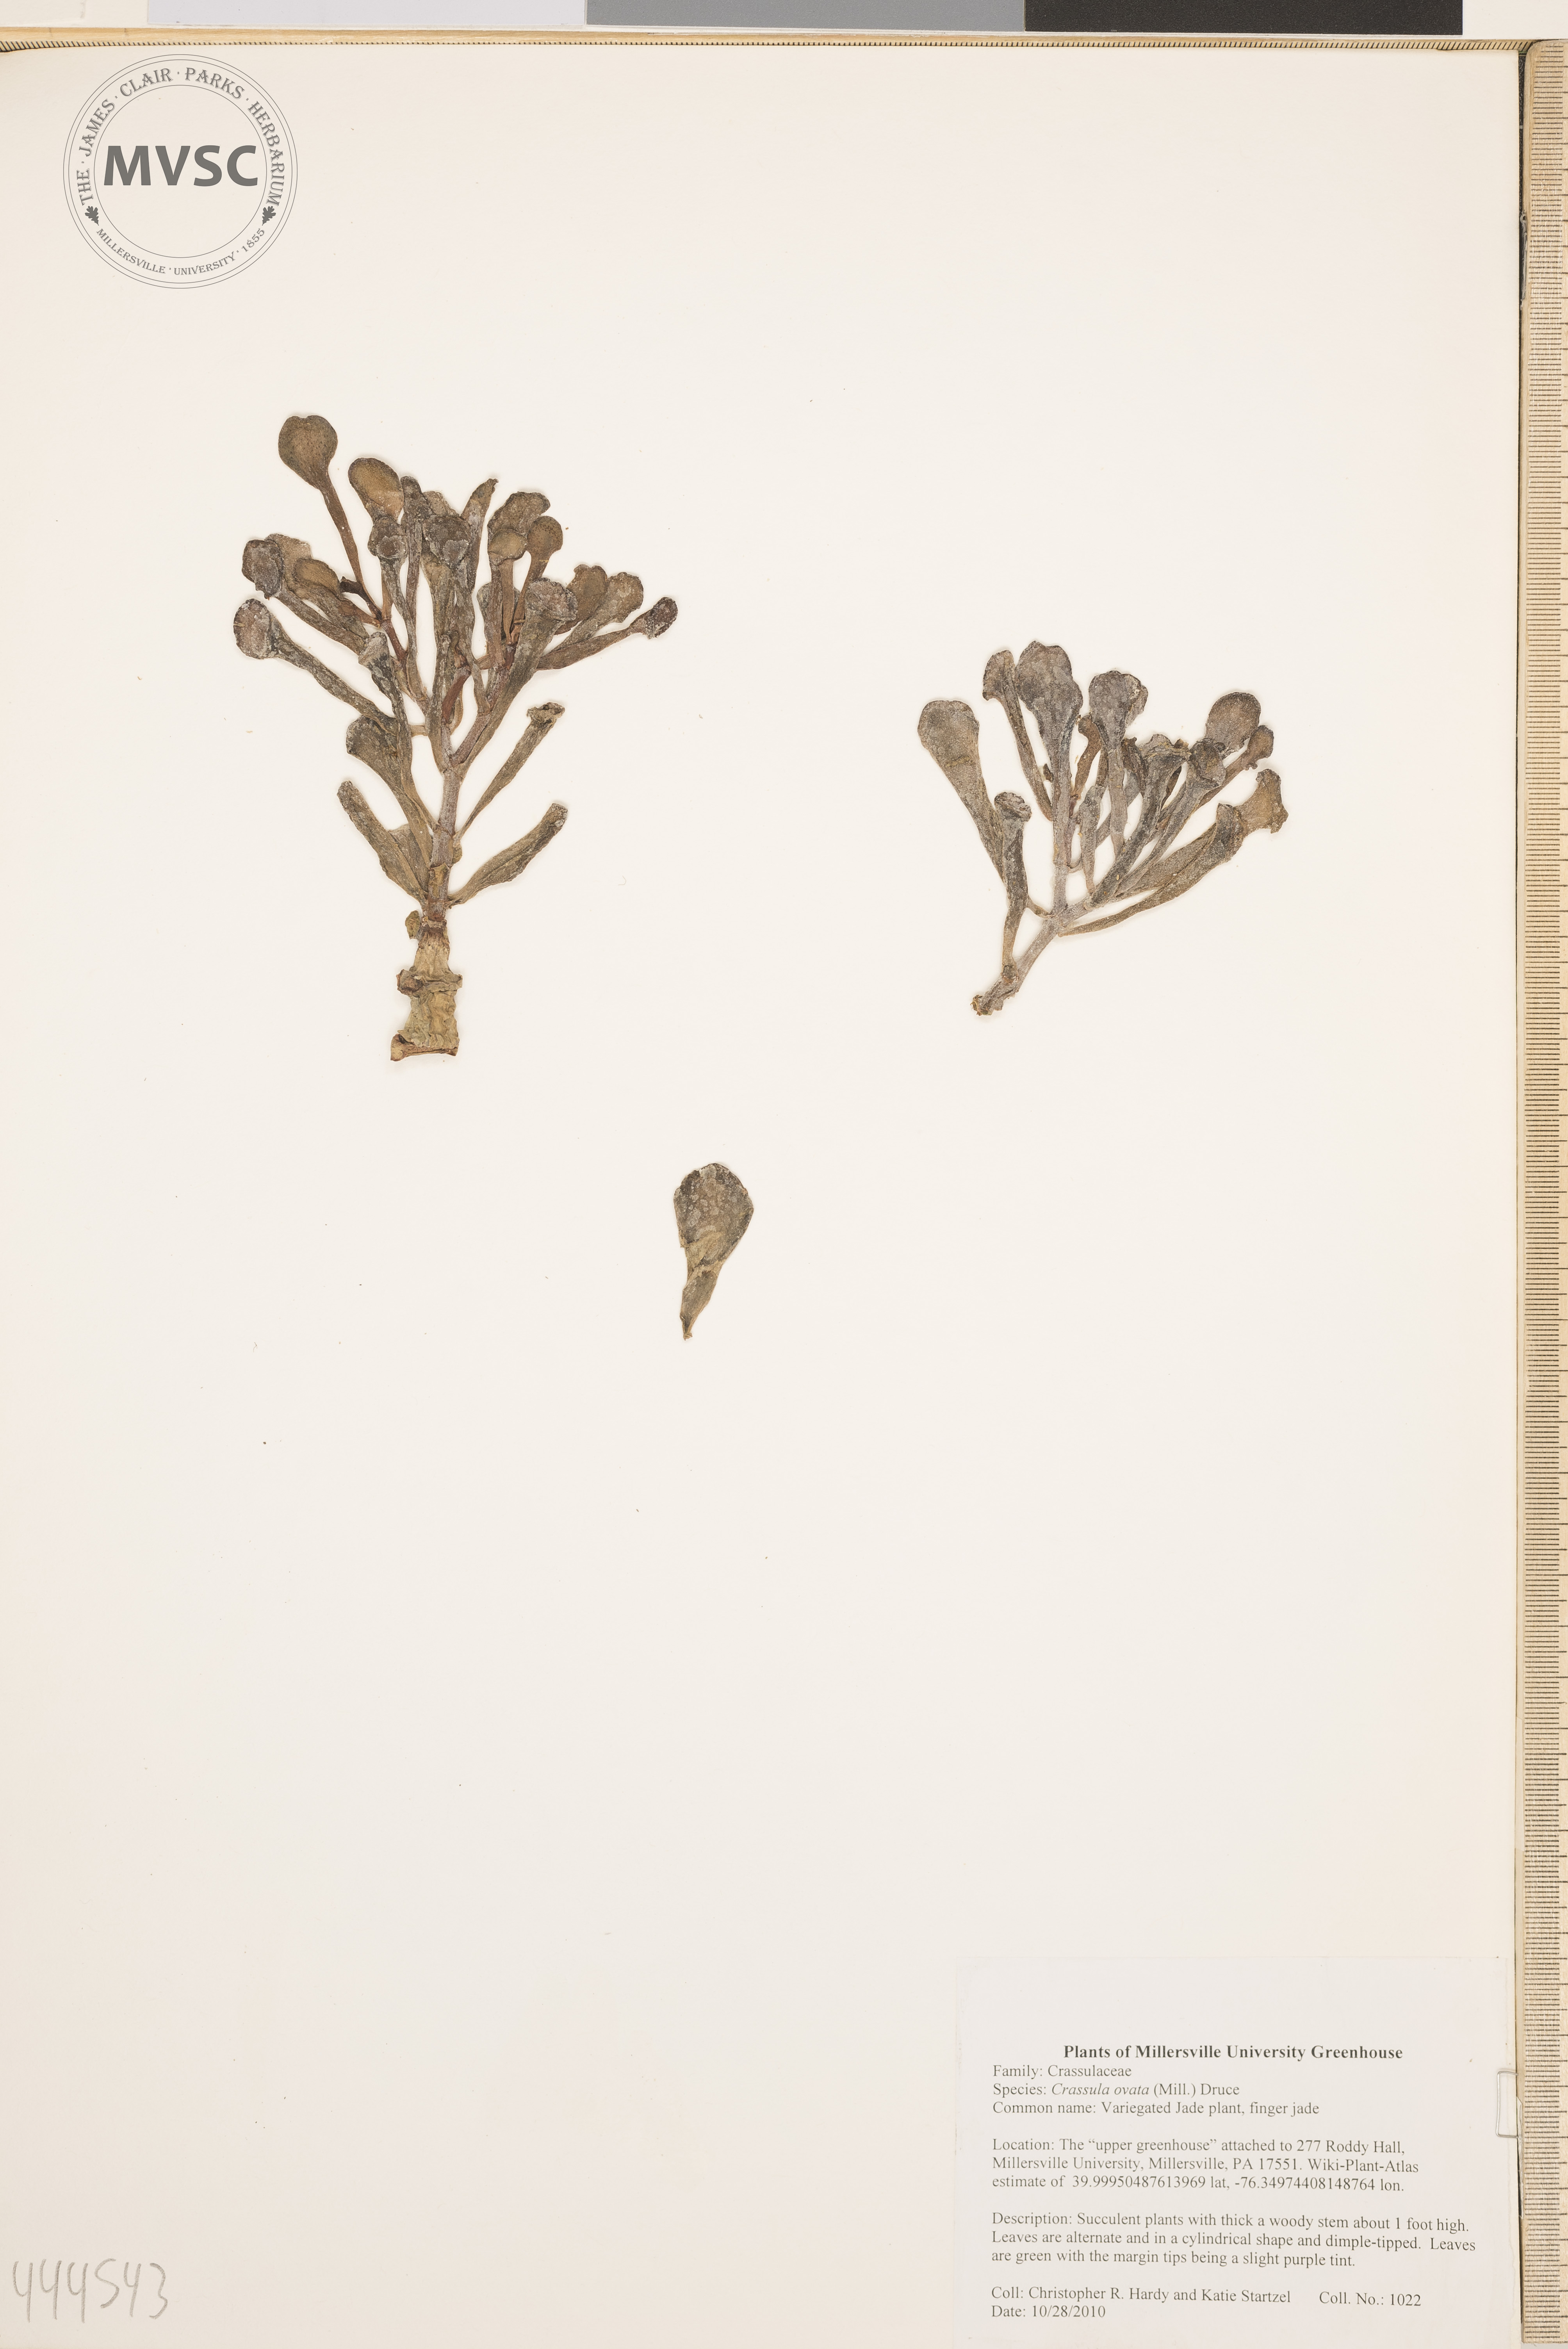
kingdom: Plantae
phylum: Tracheophyta
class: Magnoliopsida
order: Saxifragales
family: Crassulaceae
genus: Crassula
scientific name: Crassula ovata
